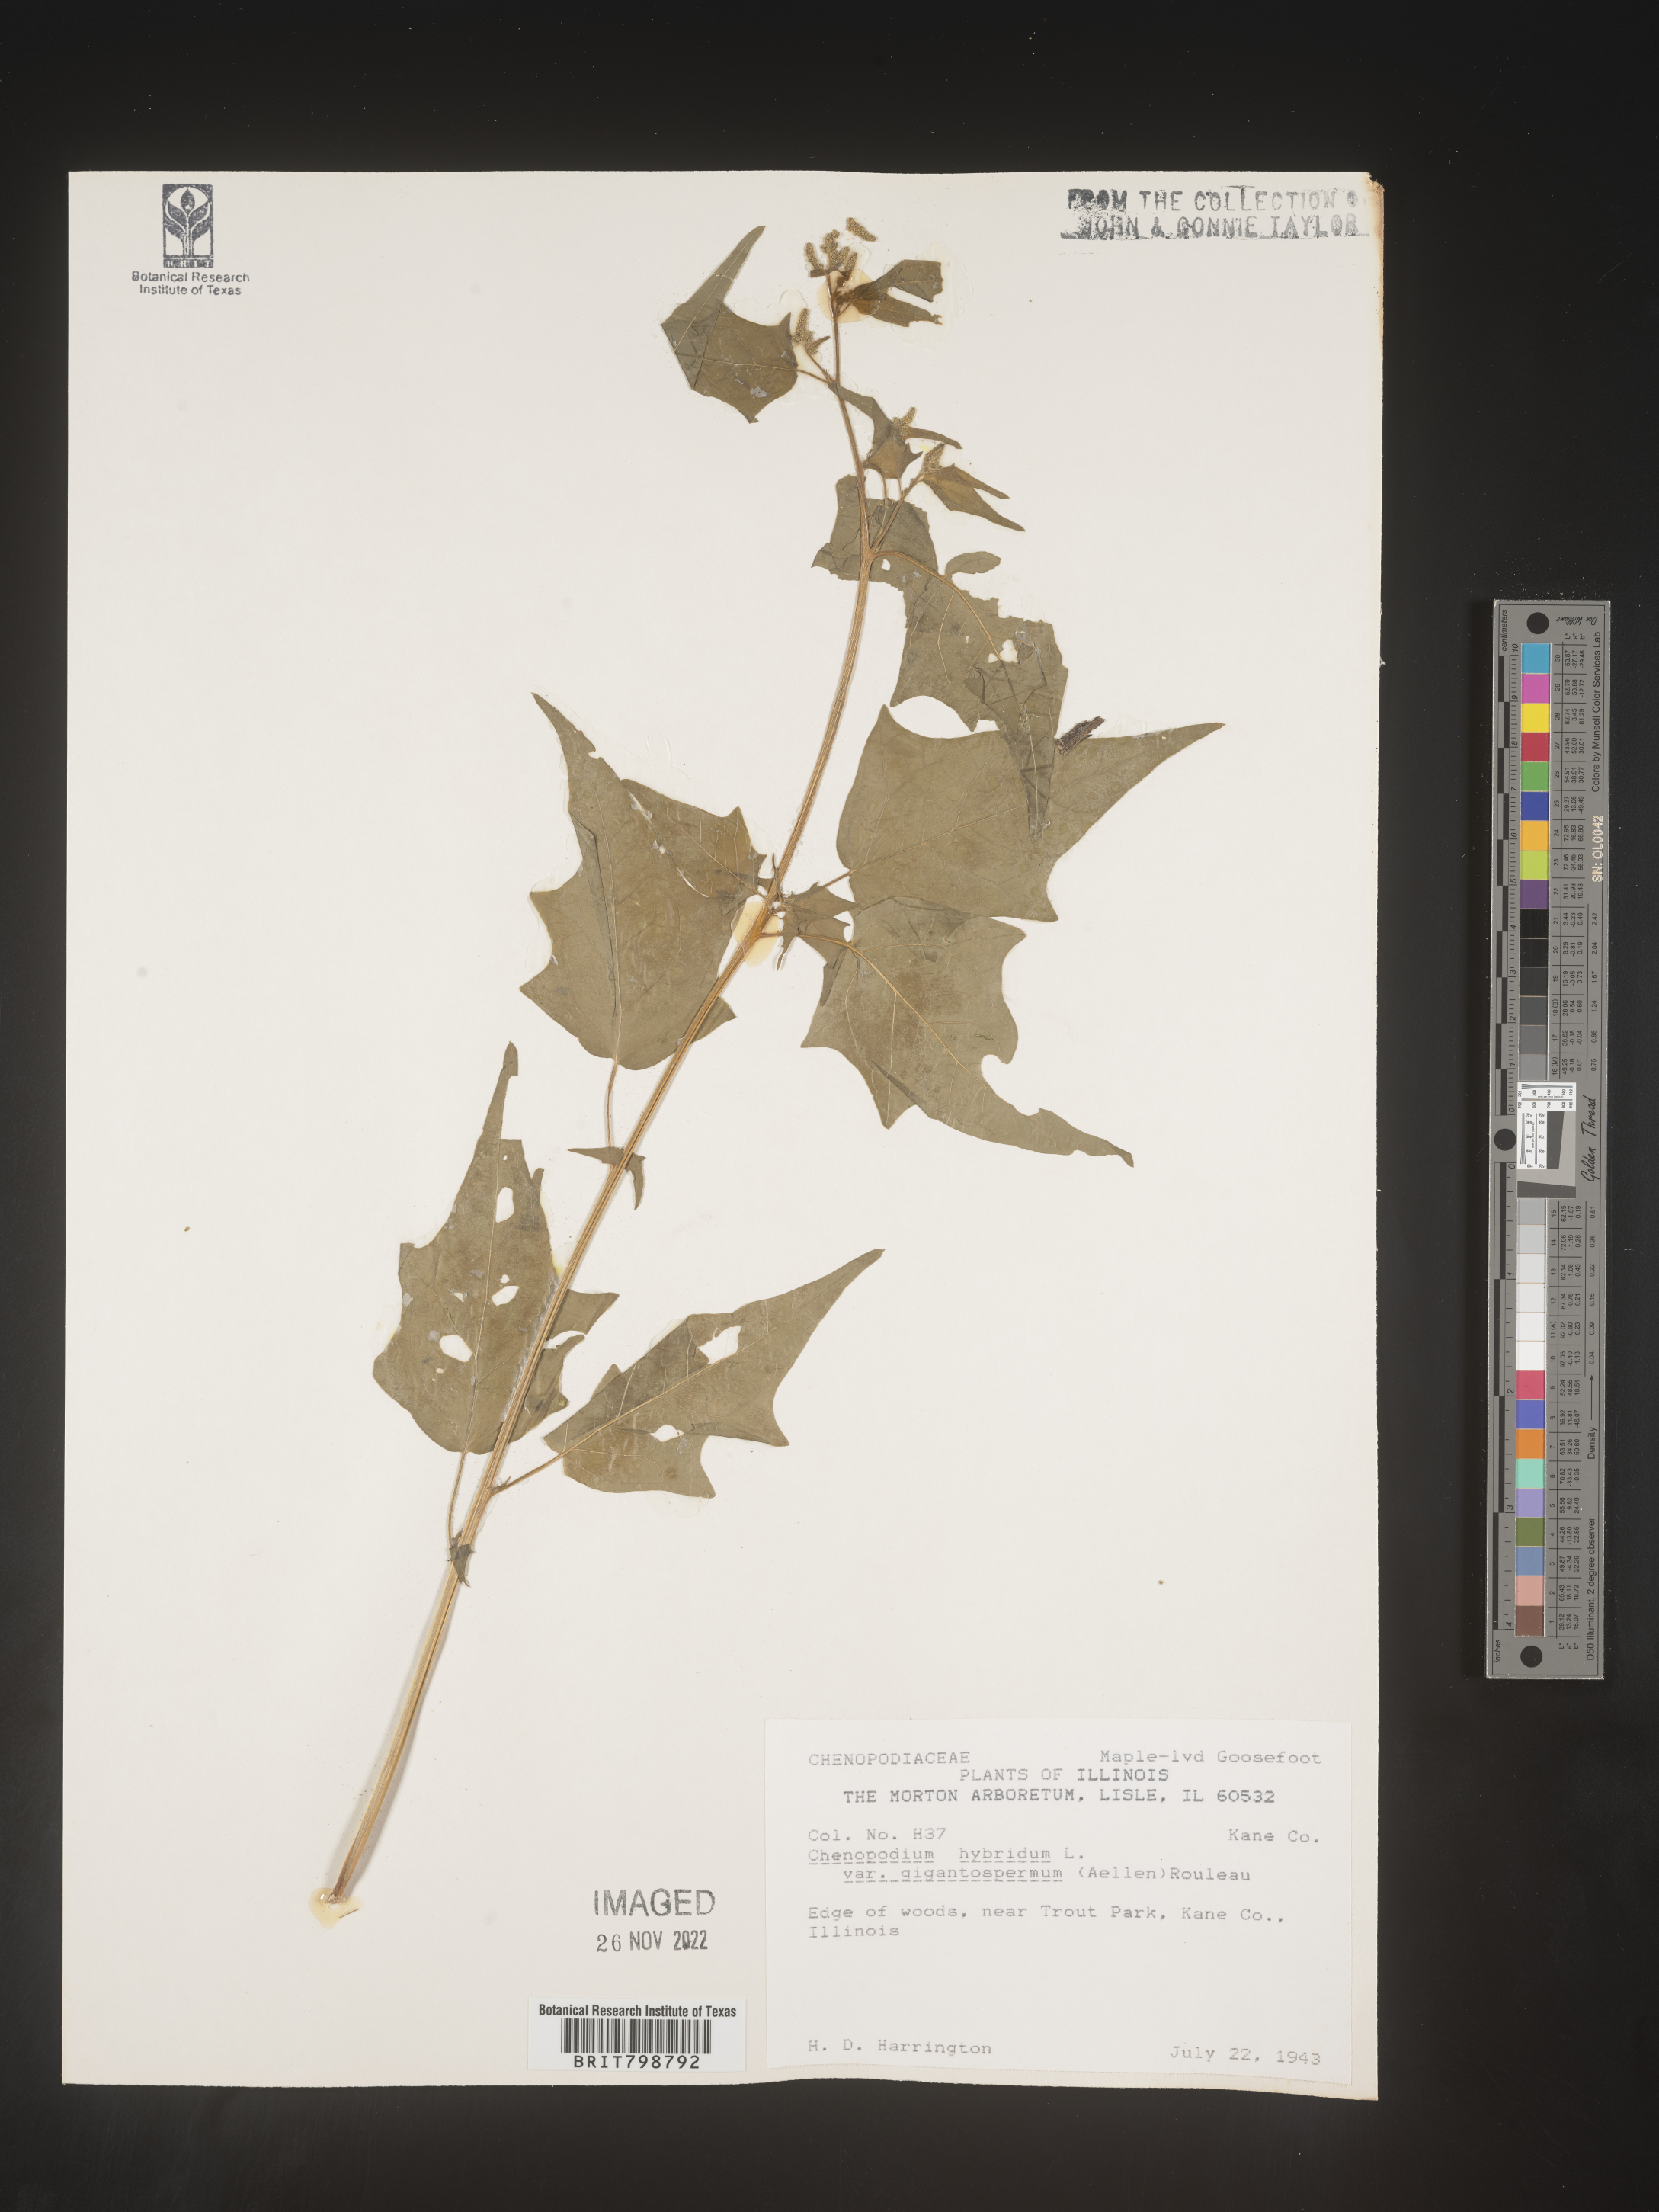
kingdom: Plantae
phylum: Tracheophyta
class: Magnoliopsida
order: Caryophyllales
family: Amaranthaceae
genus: Chenopodiastrum
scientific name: Chenopodiastrum simplex
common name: Large-seed goosefoot
